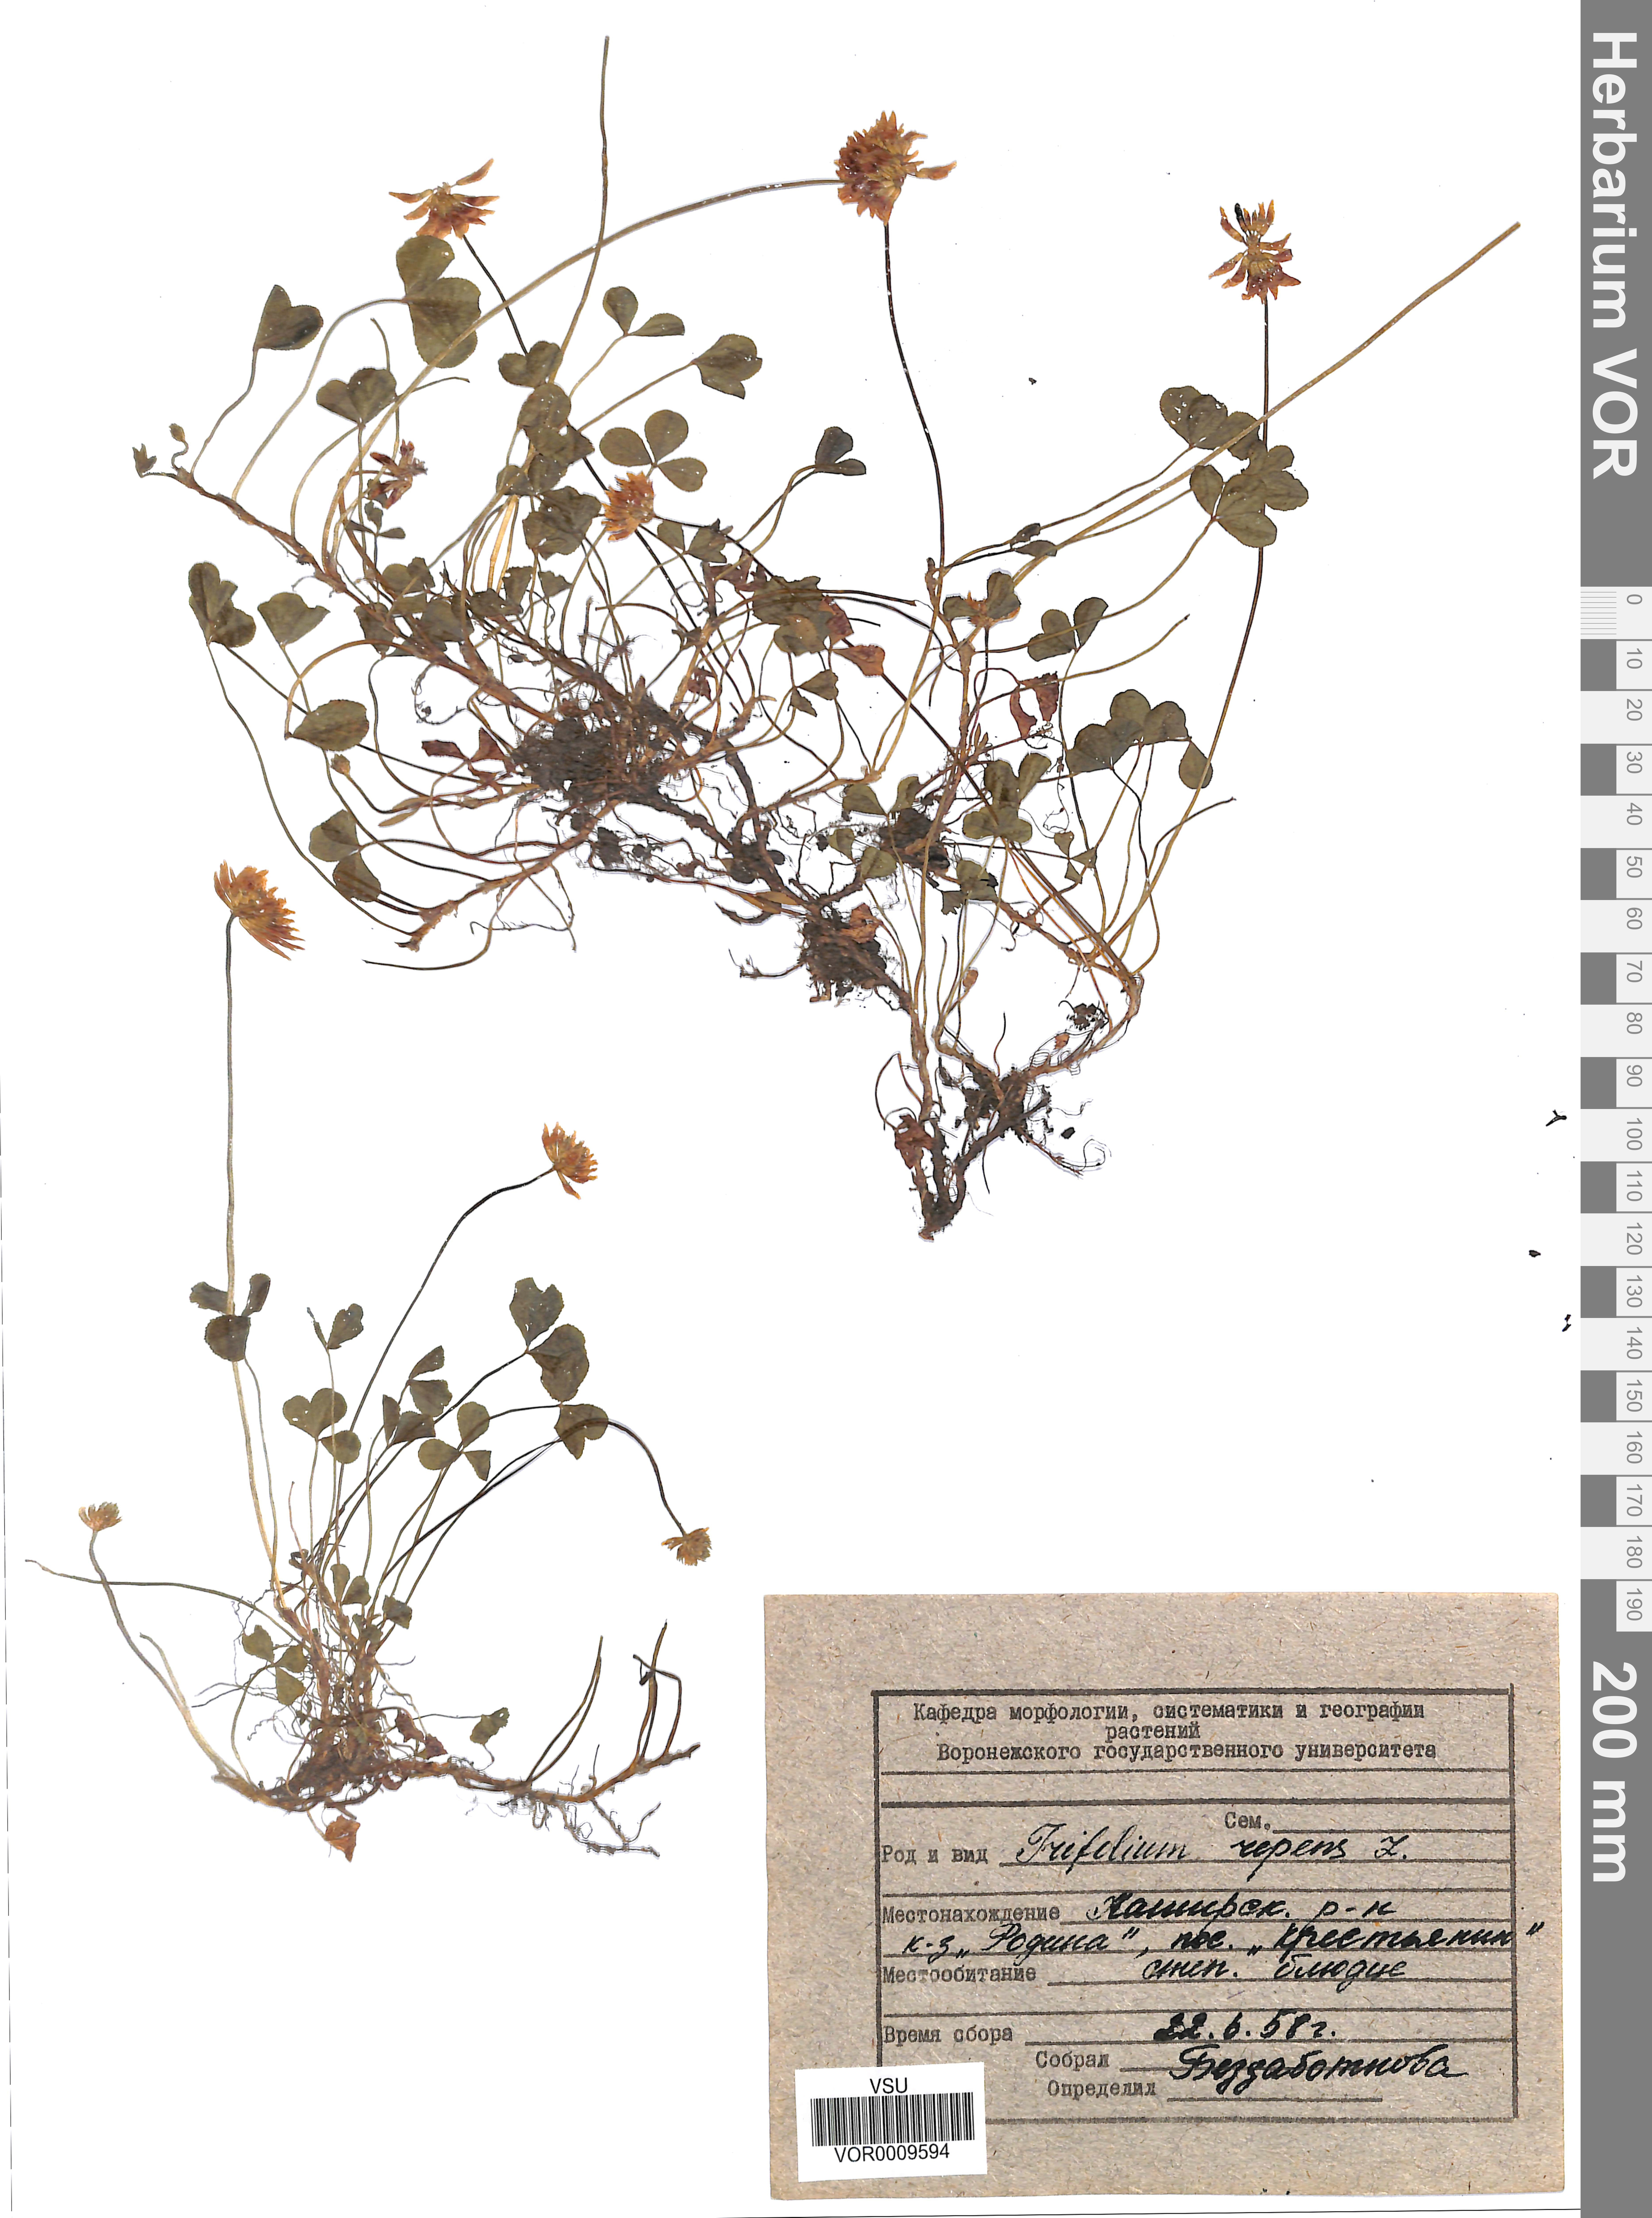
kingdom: Plantae
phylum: Tracheophyta
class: Magnoliopsida
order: Fabales
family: Fabaceae
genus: Trifolium
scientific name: Trifolium repens
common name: White clover
